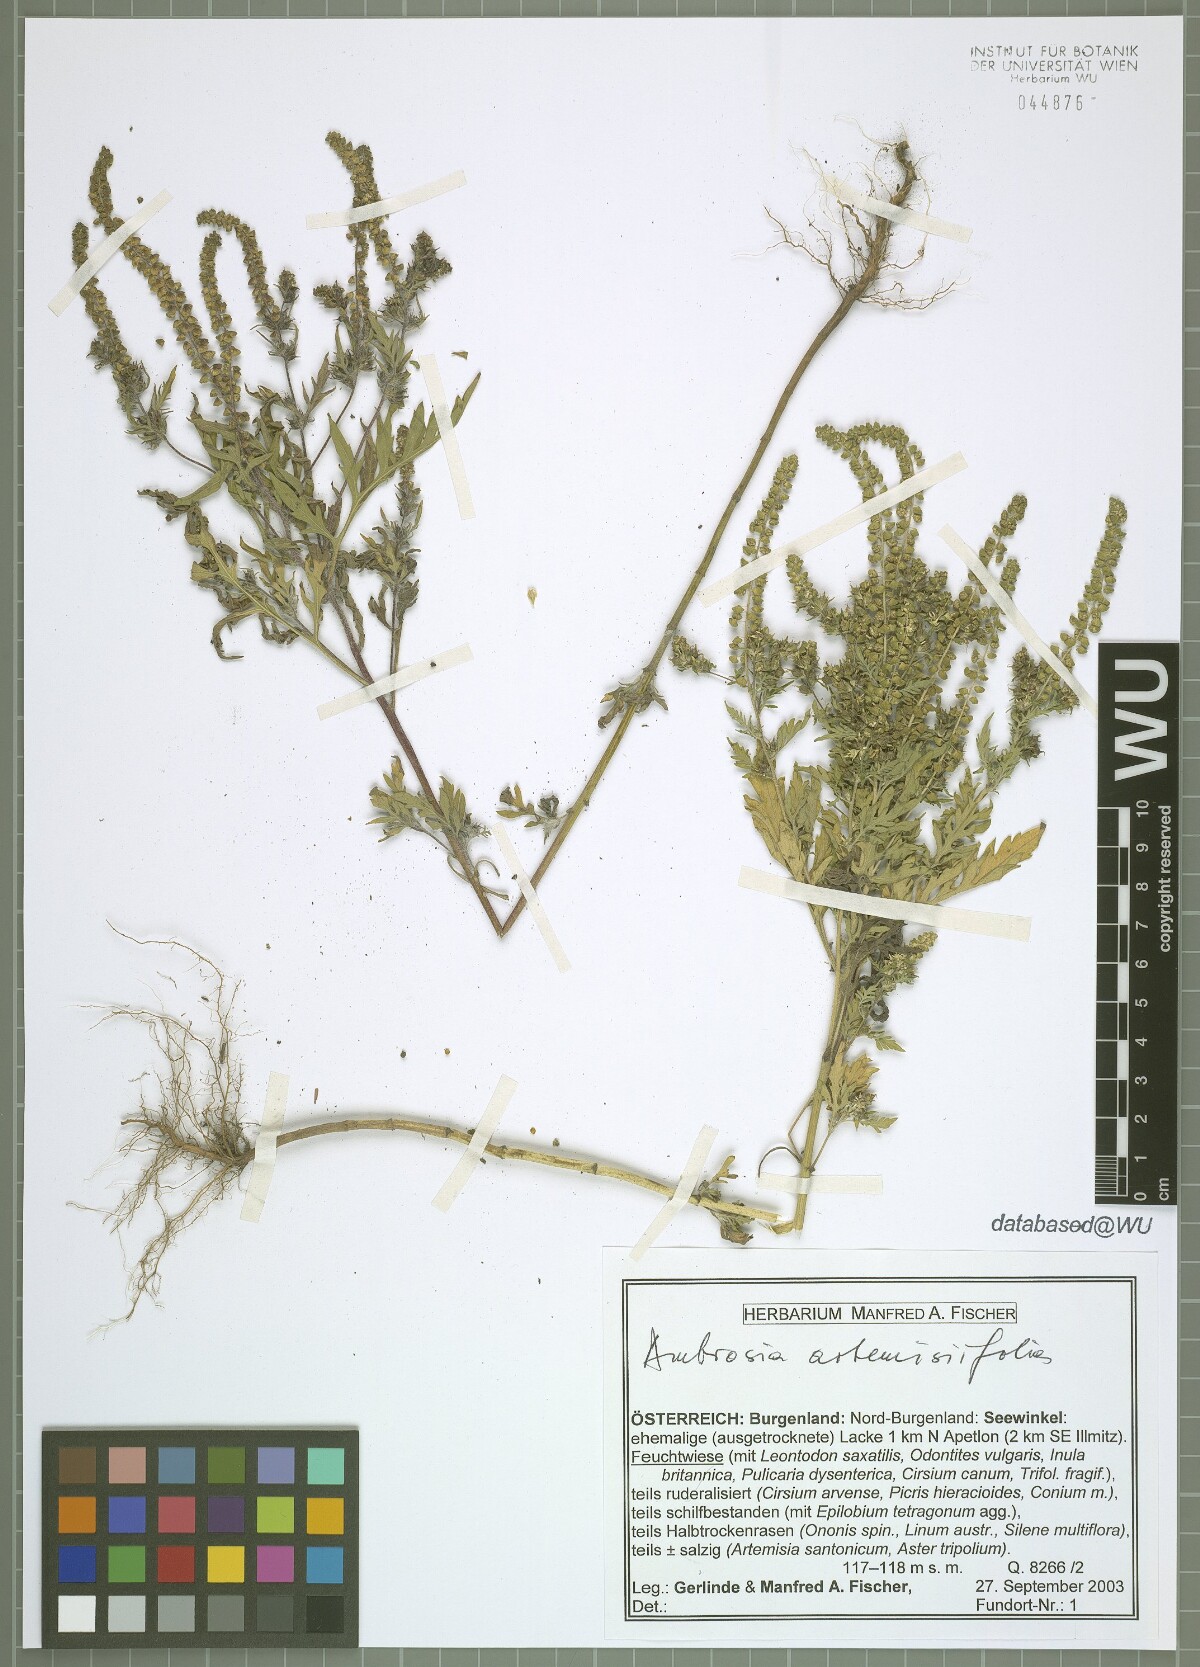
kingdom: Plantae
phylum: Tracheophyta
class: Magnoliopsida
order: Asterales
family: Asteraceae
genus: Ambrosia
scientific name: Ambrosia artemisiifolia
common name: Annual ragweed
